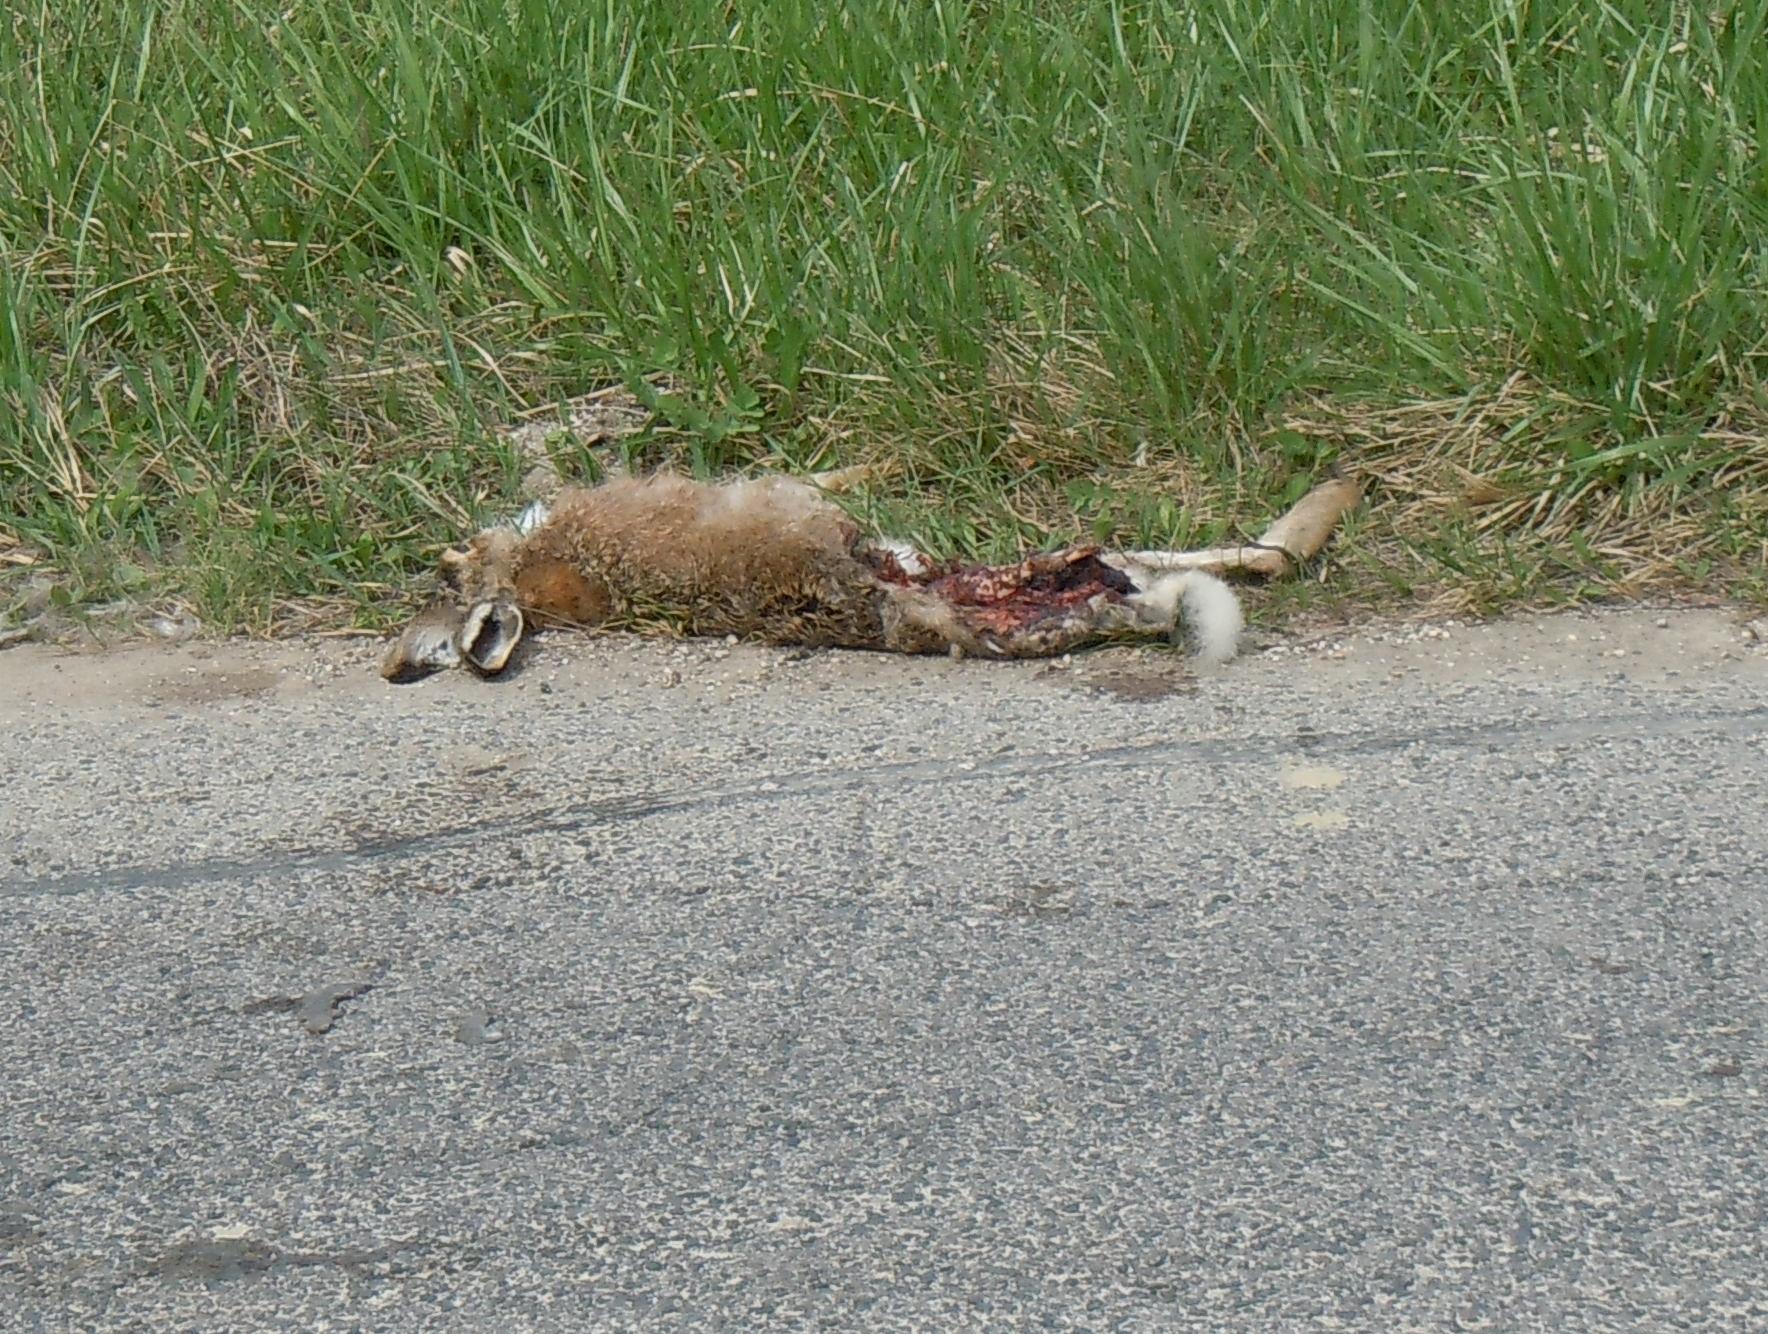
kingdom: Animalia
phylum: Chordata
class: Mammalia
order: Lagomorpha
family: Leporidae
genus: Lepus
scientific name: Lepus europaeus
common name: European hare
